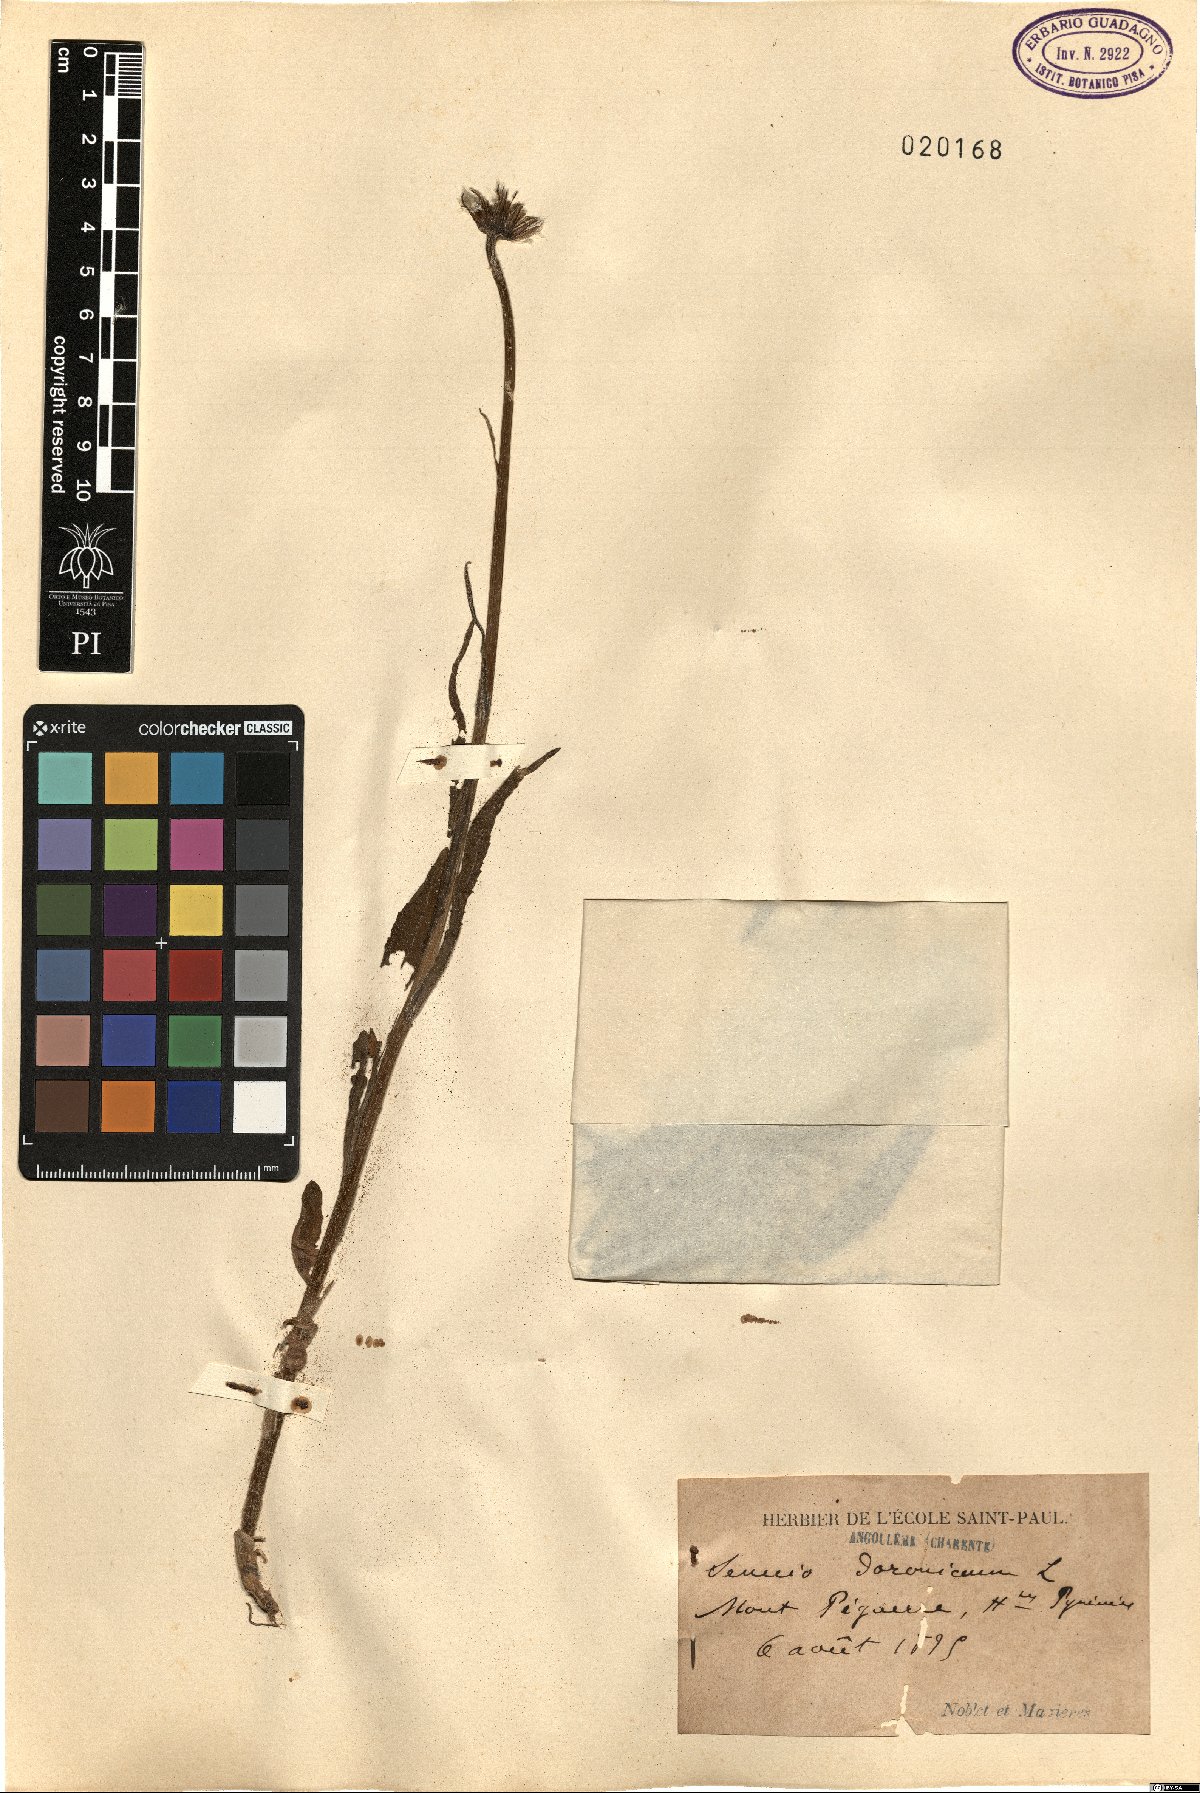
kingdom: Plantae
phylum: Tracheophyta
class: Magnoliopsida
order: Asterales
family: Asteraceae
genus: Senecio
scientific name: Senecio doronicum
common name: Chamois ragwort
